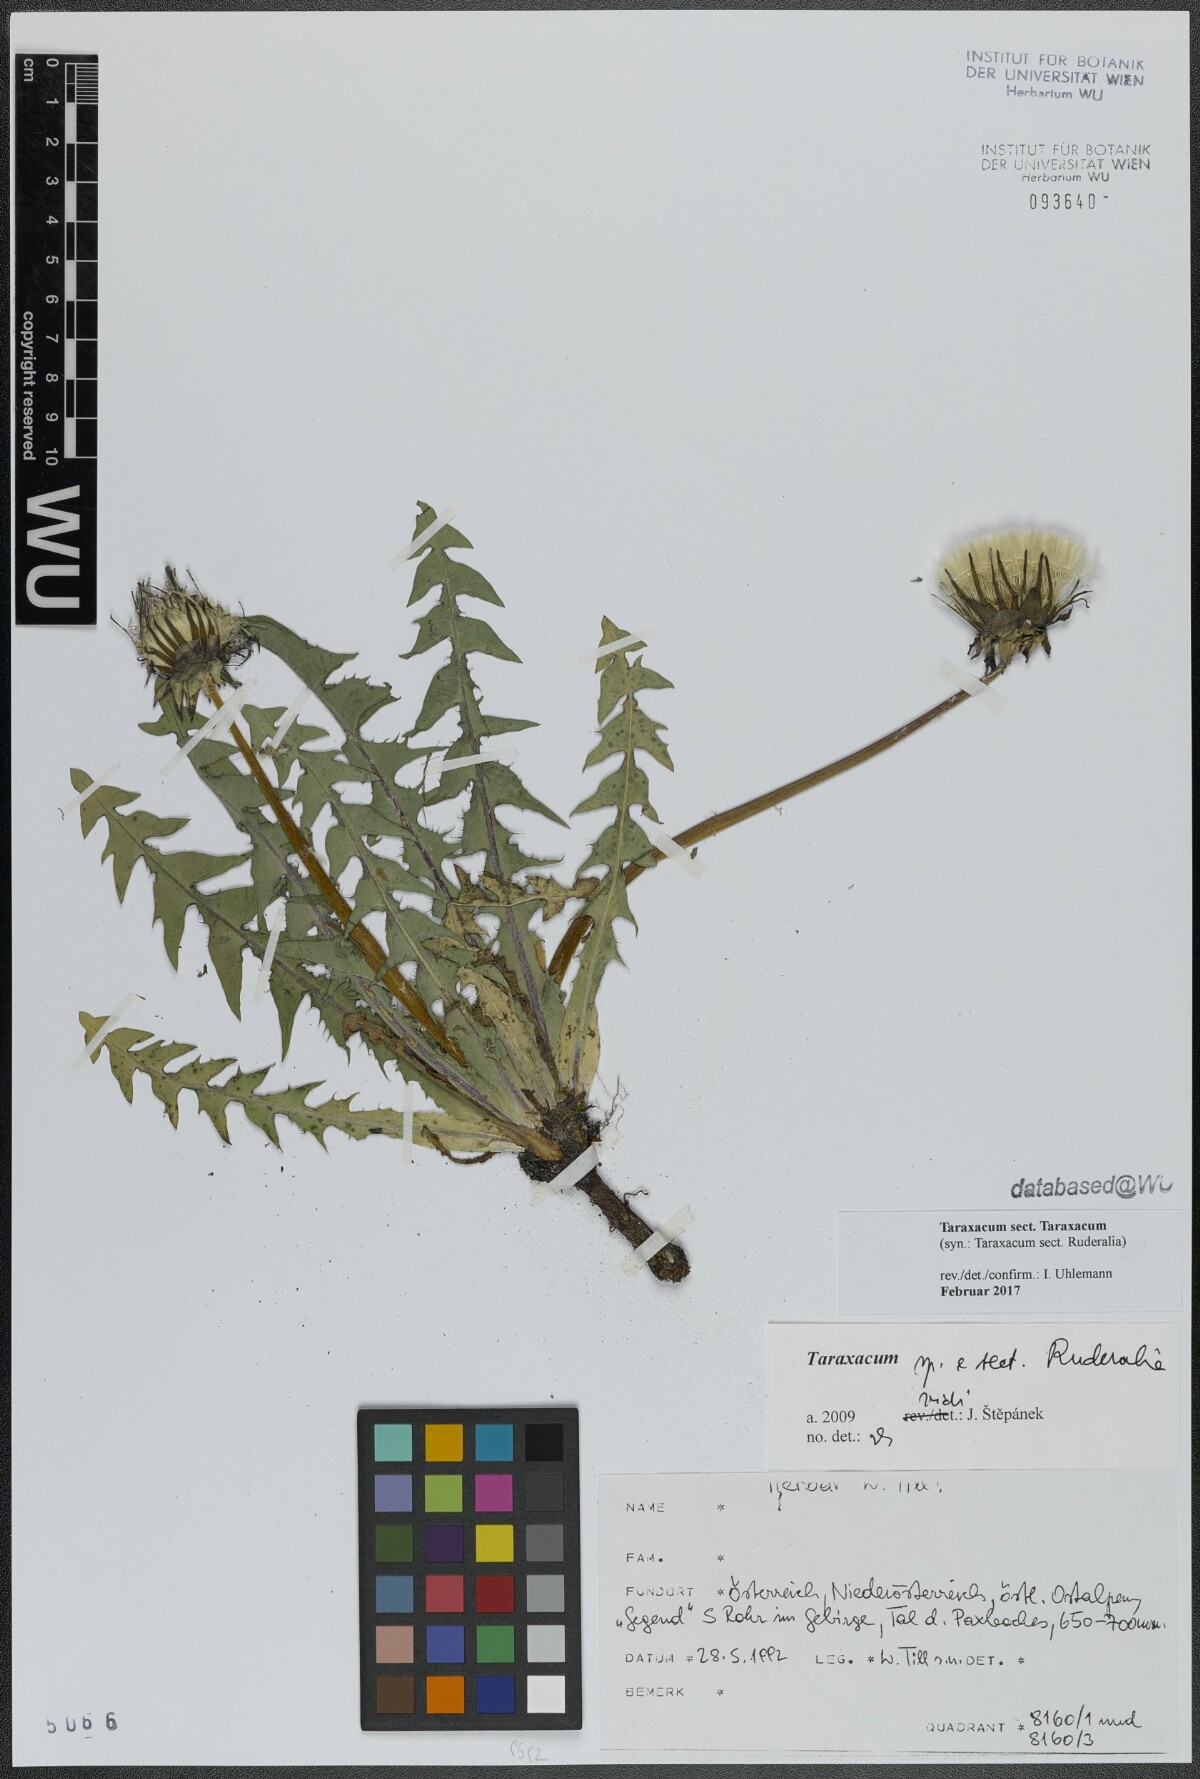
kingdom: Plantae
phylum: Tracheophyta
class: Magnoliopsida
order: Asterales
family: Asteraceae
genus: Taraxacum
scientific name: Taraxacum
